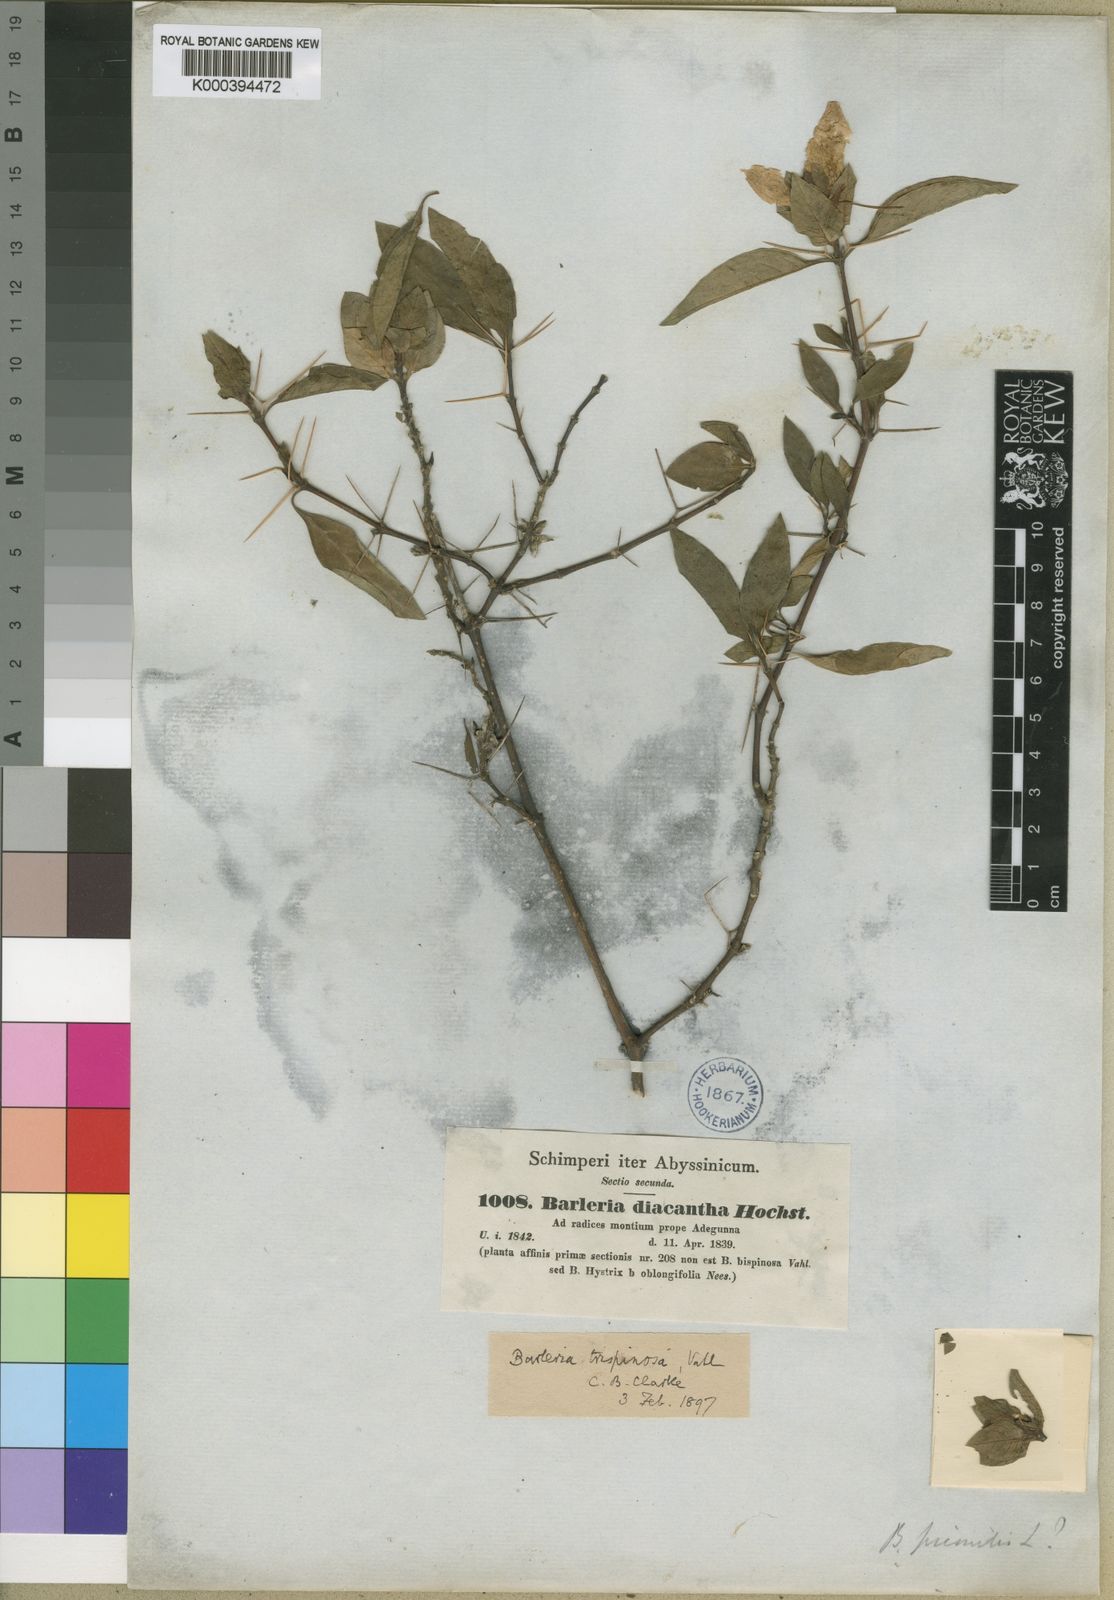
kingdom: Plantae
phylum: Tracheophyta
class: Magnoliopsida
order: Lamiales
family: Acanthaceae
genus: Barleria
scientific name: Barleria trispinosa
